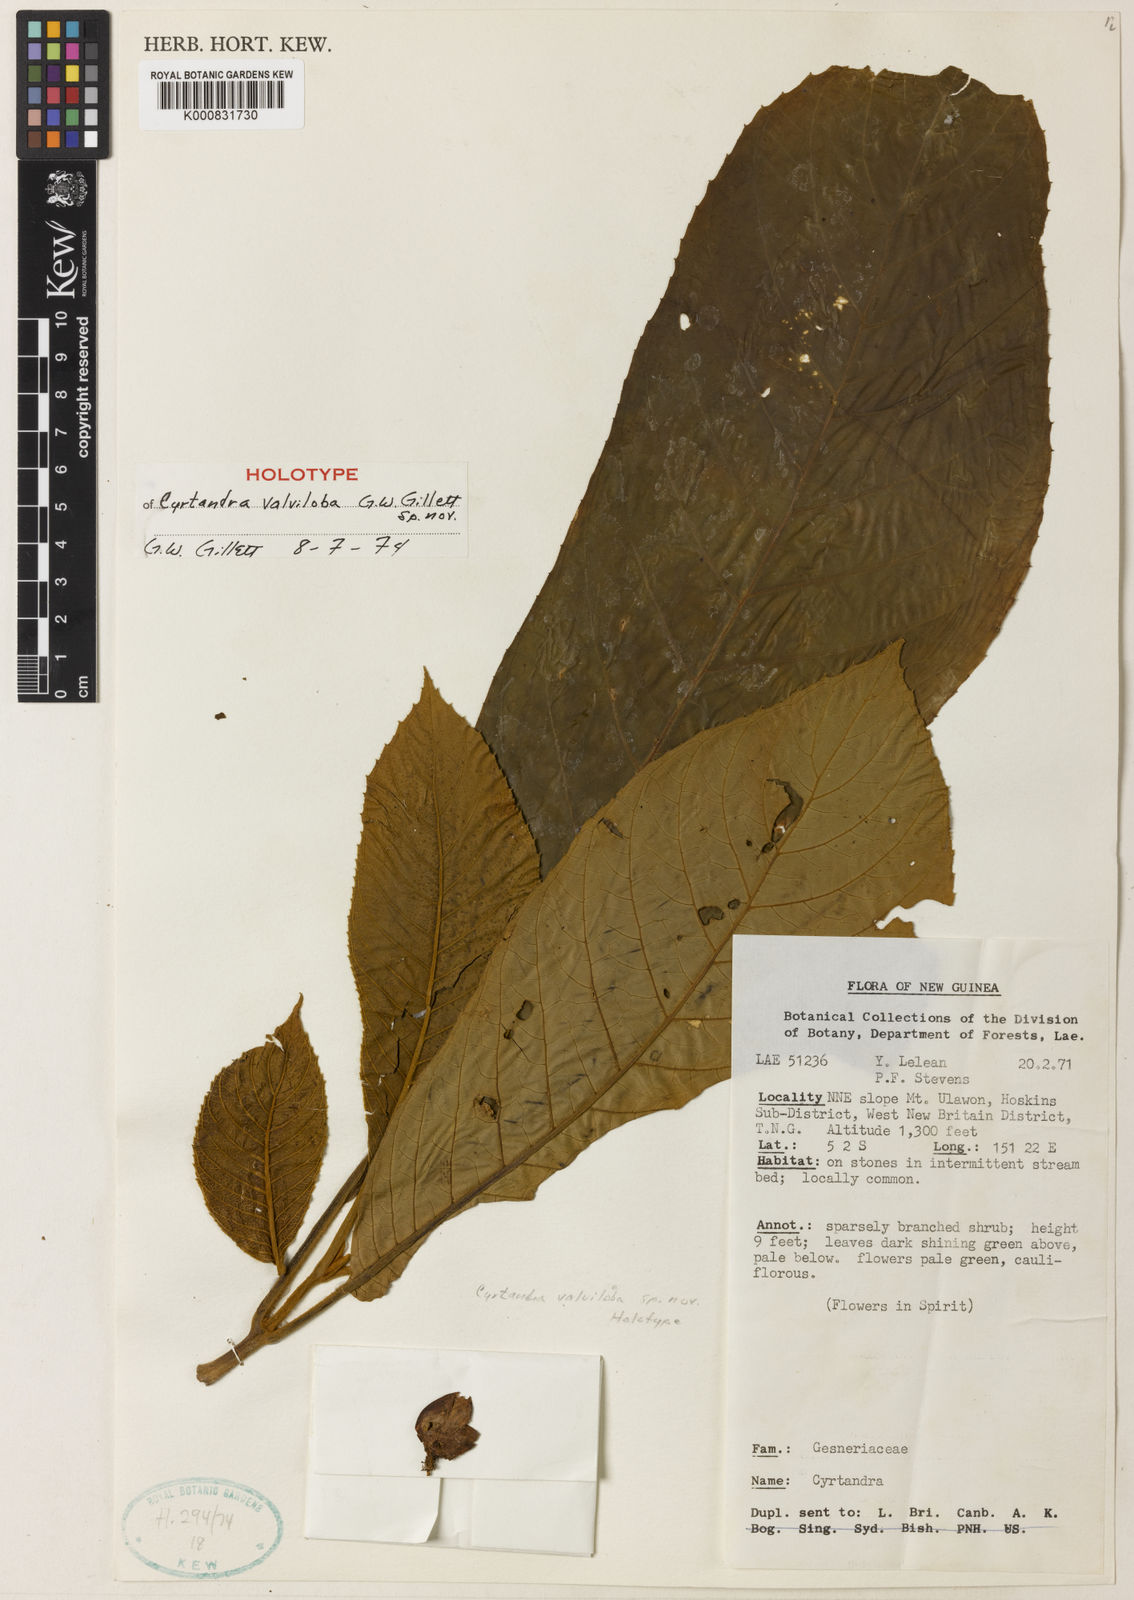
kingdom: Plantae
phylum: Tracheophyta
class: Magnoliopsida
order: Lamiales
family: Gesneriaceae
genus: Cyrtandra
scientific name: Cyrtandra valviloba
